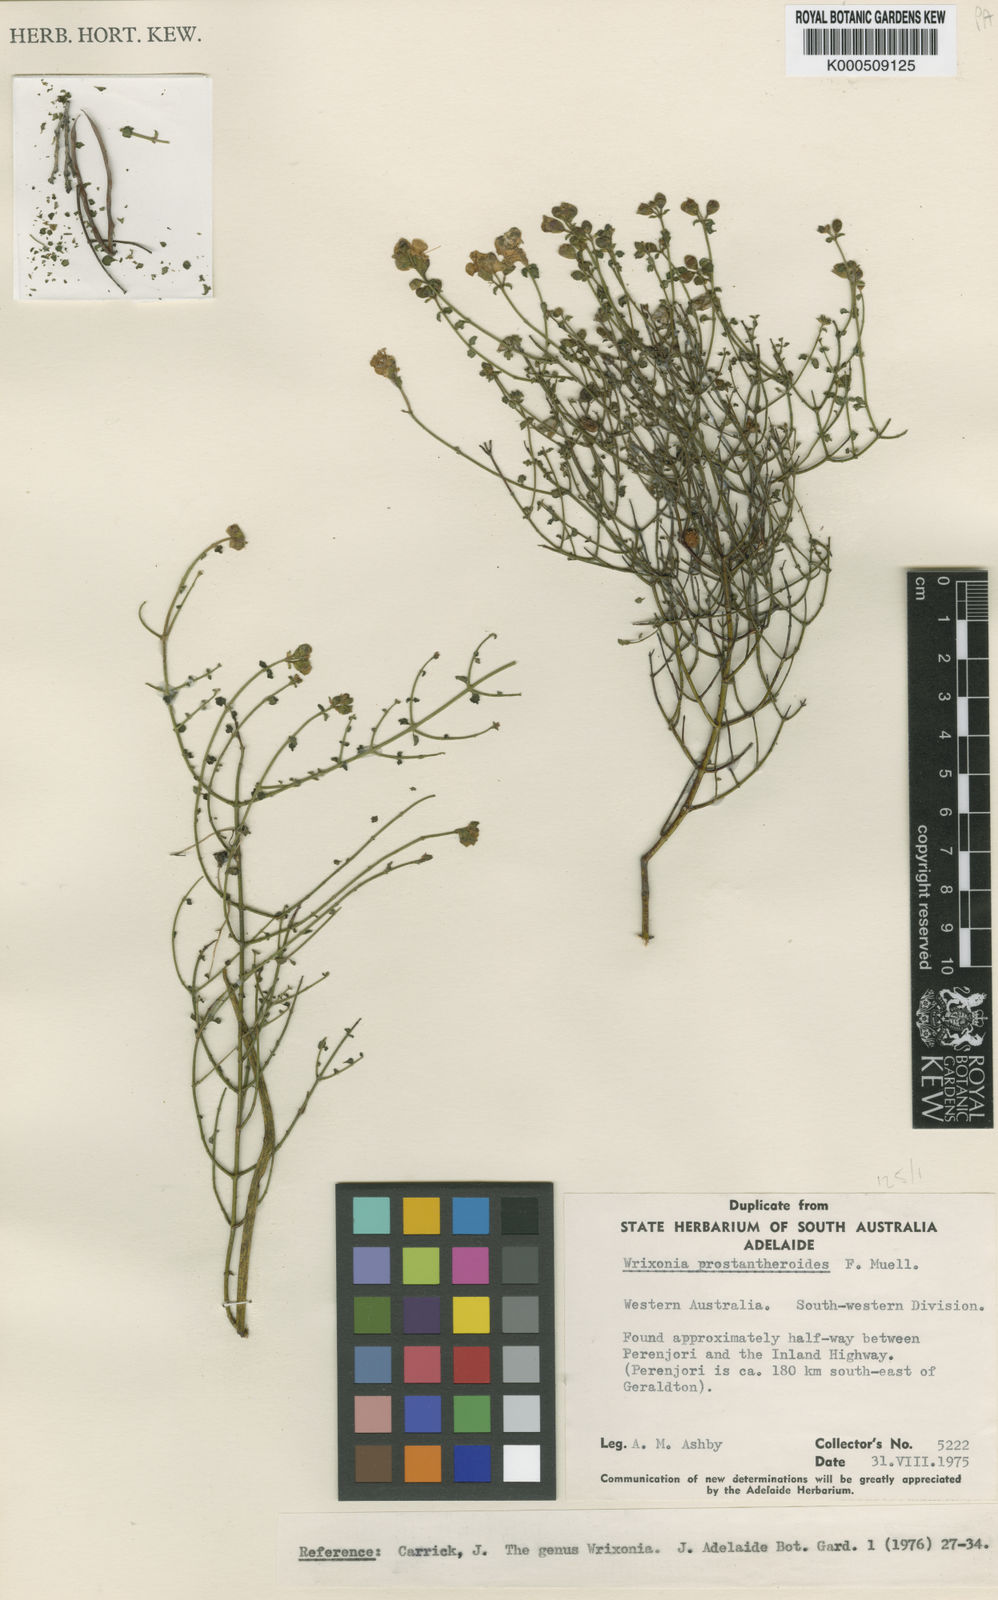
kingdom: Plantae
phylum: Tracheophyta
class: Magnoliopsida
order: Lamiales
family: Lamiaceae
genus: Prostanthera
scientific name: Prostanthera prostantheroides
